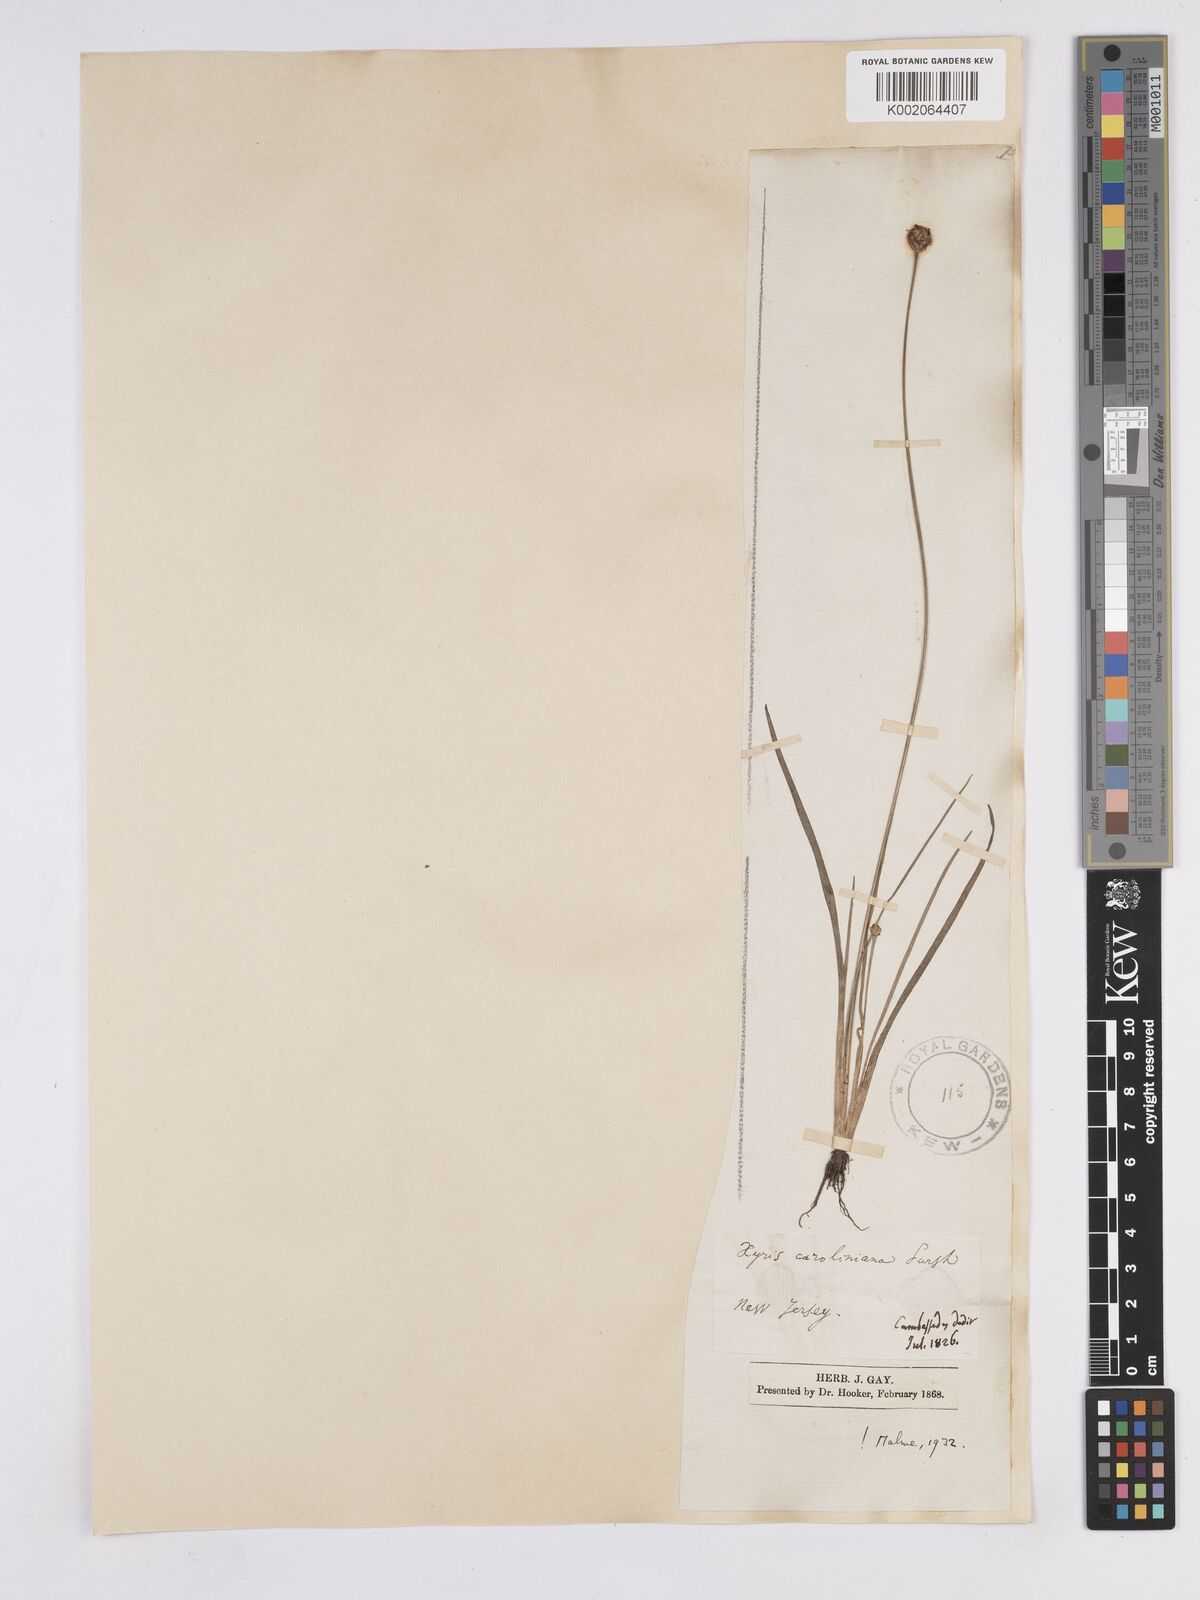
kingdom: Plantae
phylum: Tracheophyta
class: Liliopsida
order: Poales
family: Xyridaceae
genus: Xyris
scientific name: Xyris caroliniana
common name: Carolina yellow-eyed-grass
